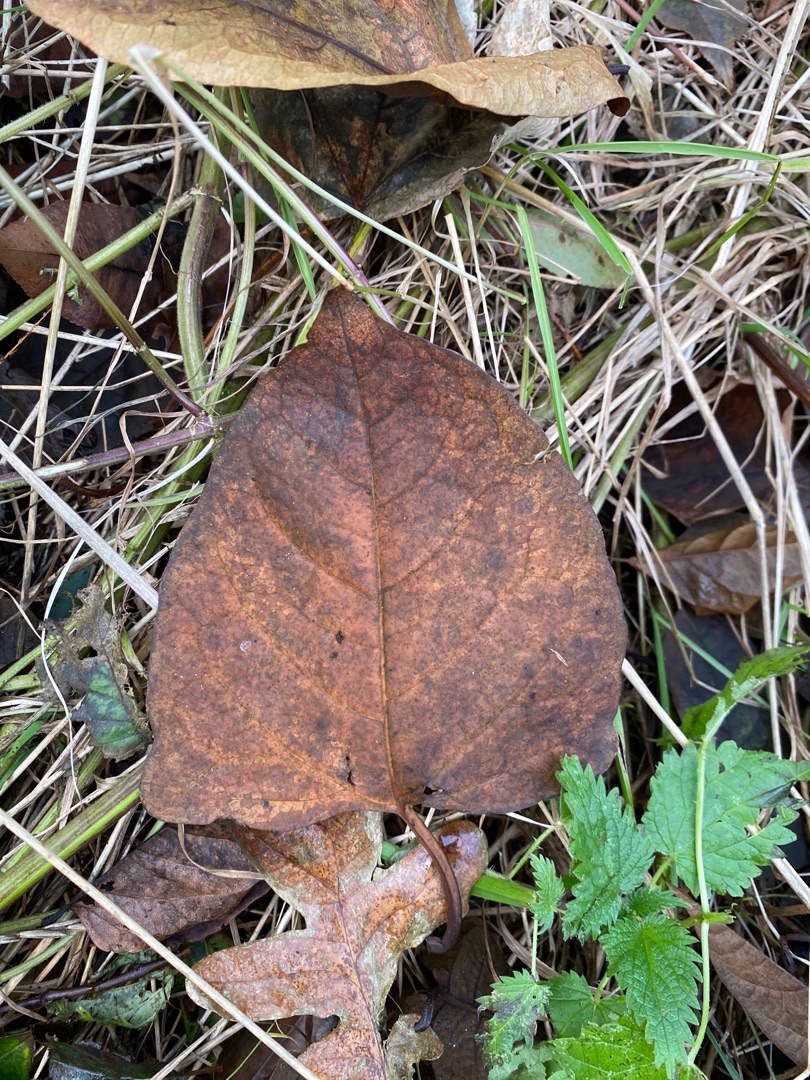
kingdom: Plantae
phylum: Tracheophyta
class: Magnoliopsida
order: Caryophyllales
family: Polygonaceae
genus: Reynoutria
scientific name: Reynoutria japonica
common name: Japan-pileurt
